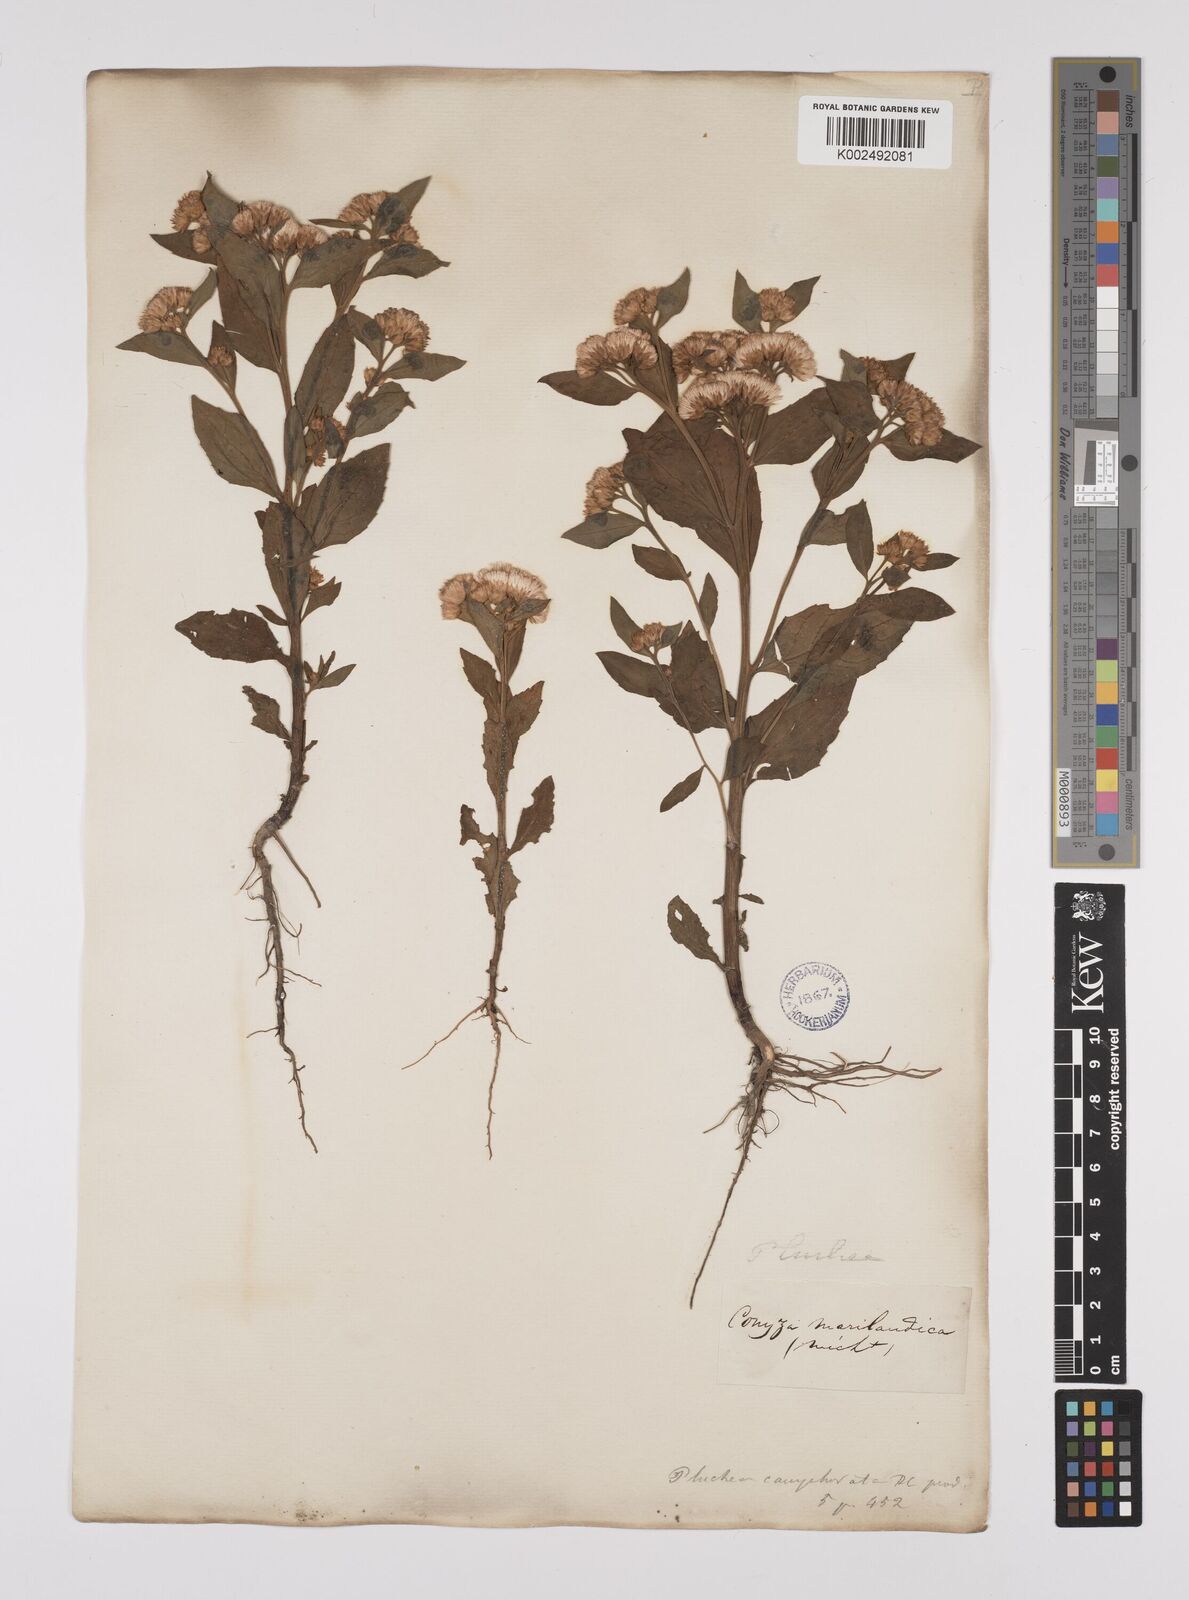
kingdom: Plantae
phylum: Tracheophyta
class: Magnoliopsida
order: Asterales
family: Asteraceae
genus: Pluchea
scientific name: Pluchea camphorata
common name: Camphor pluchea
